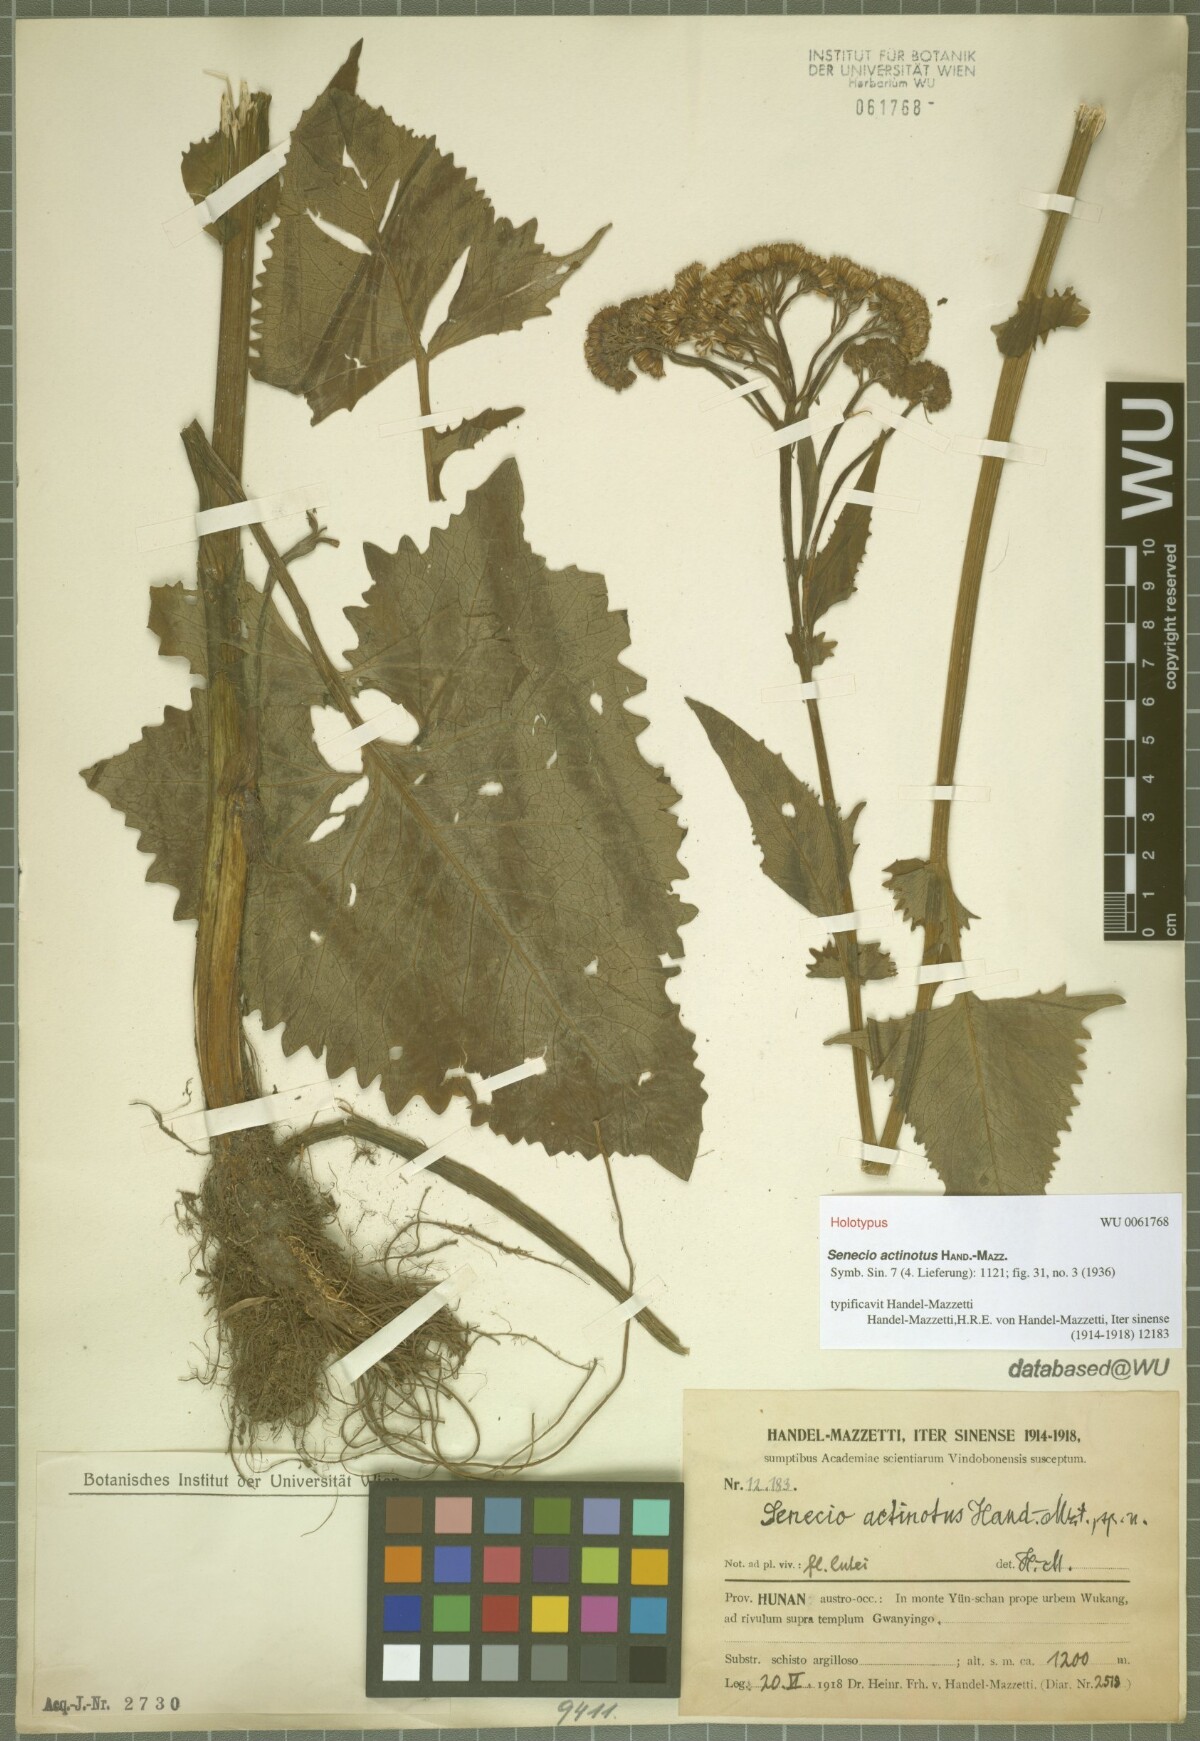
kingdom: Plantae
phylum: Tracheophyta
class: Magnoliopsida
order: Asterales
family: Asteraceae
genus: Senecio
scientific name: Senecio actinotus
